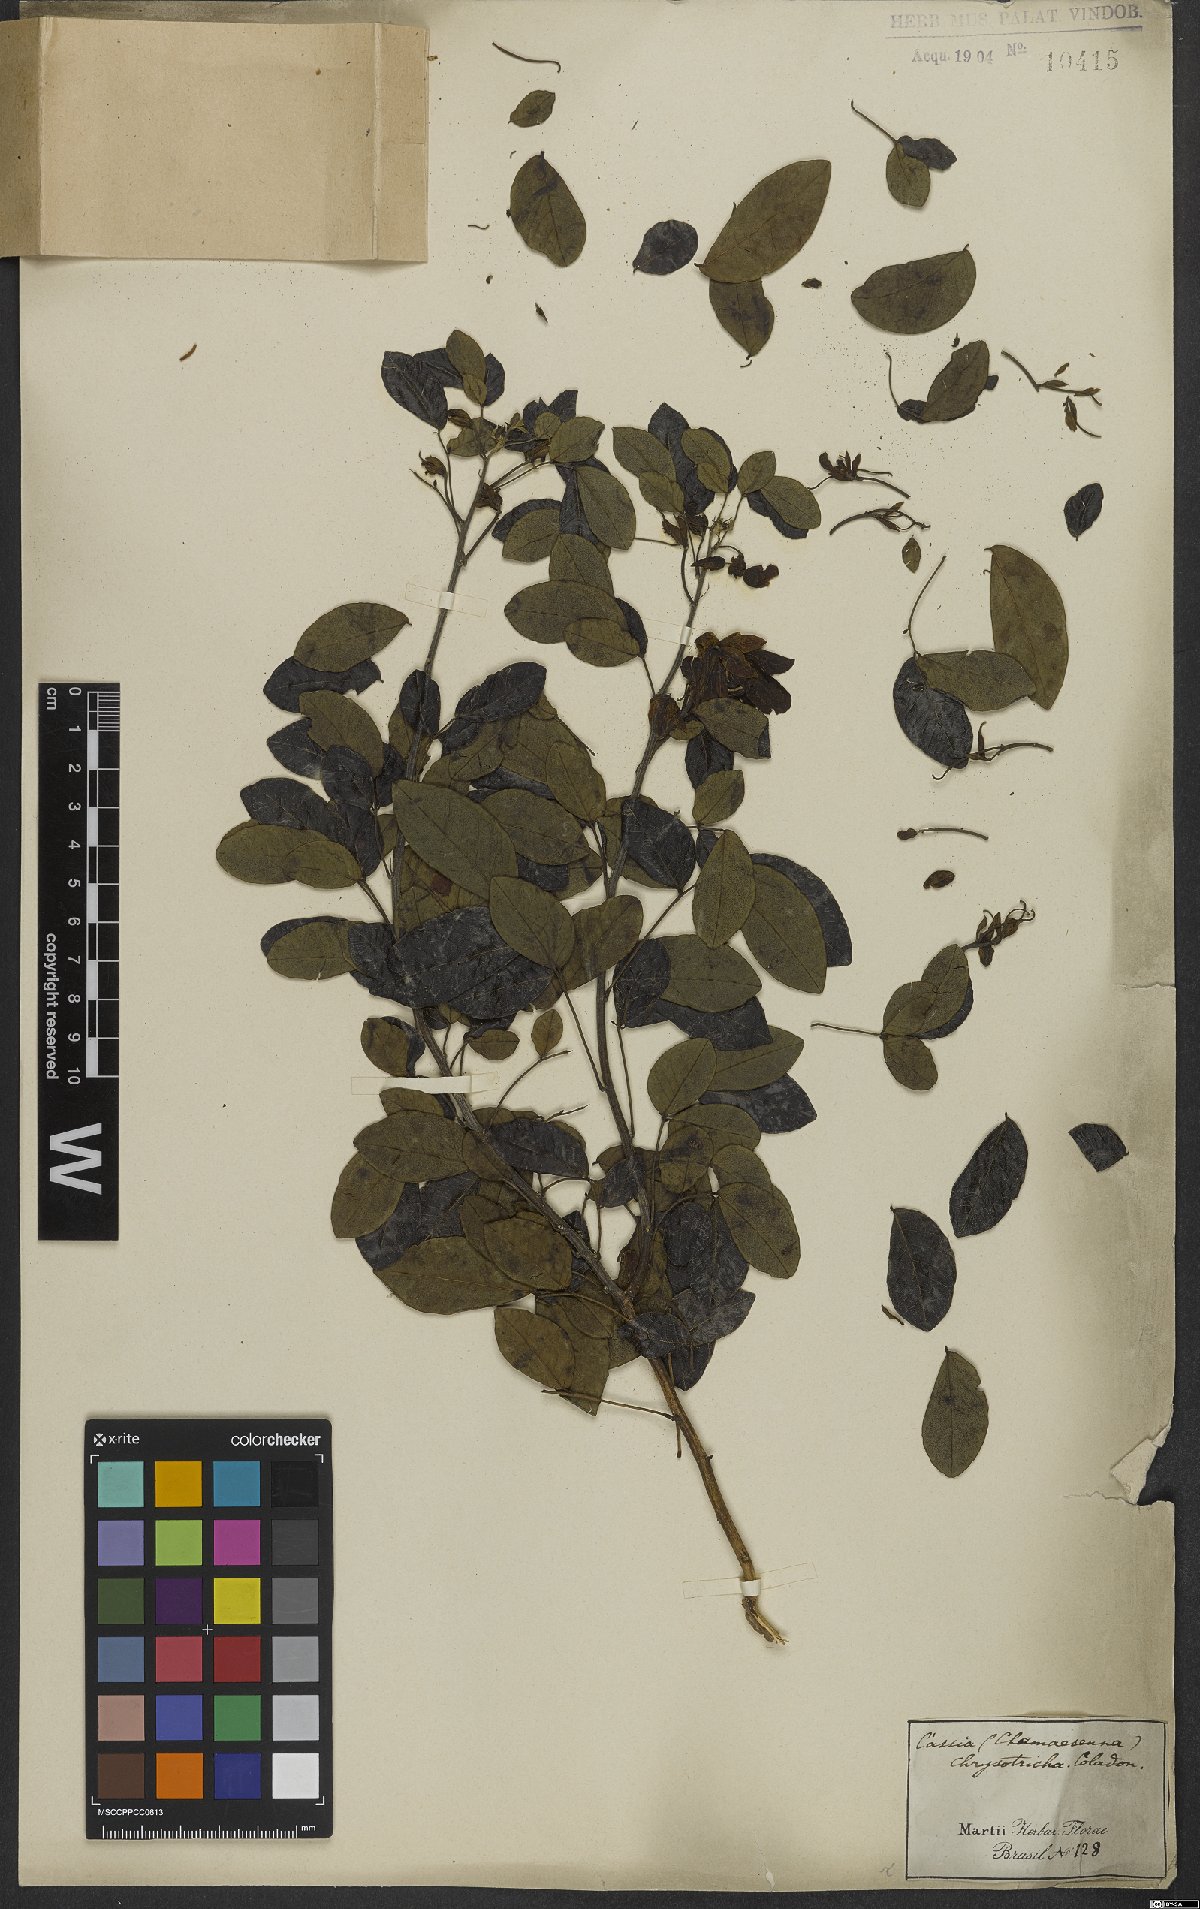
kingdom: Plantae
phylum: Tracheophyta
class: Magnoliopsida
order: Fabales
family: Fabaceae
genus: Senna
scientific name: Senna chrysocarpa
